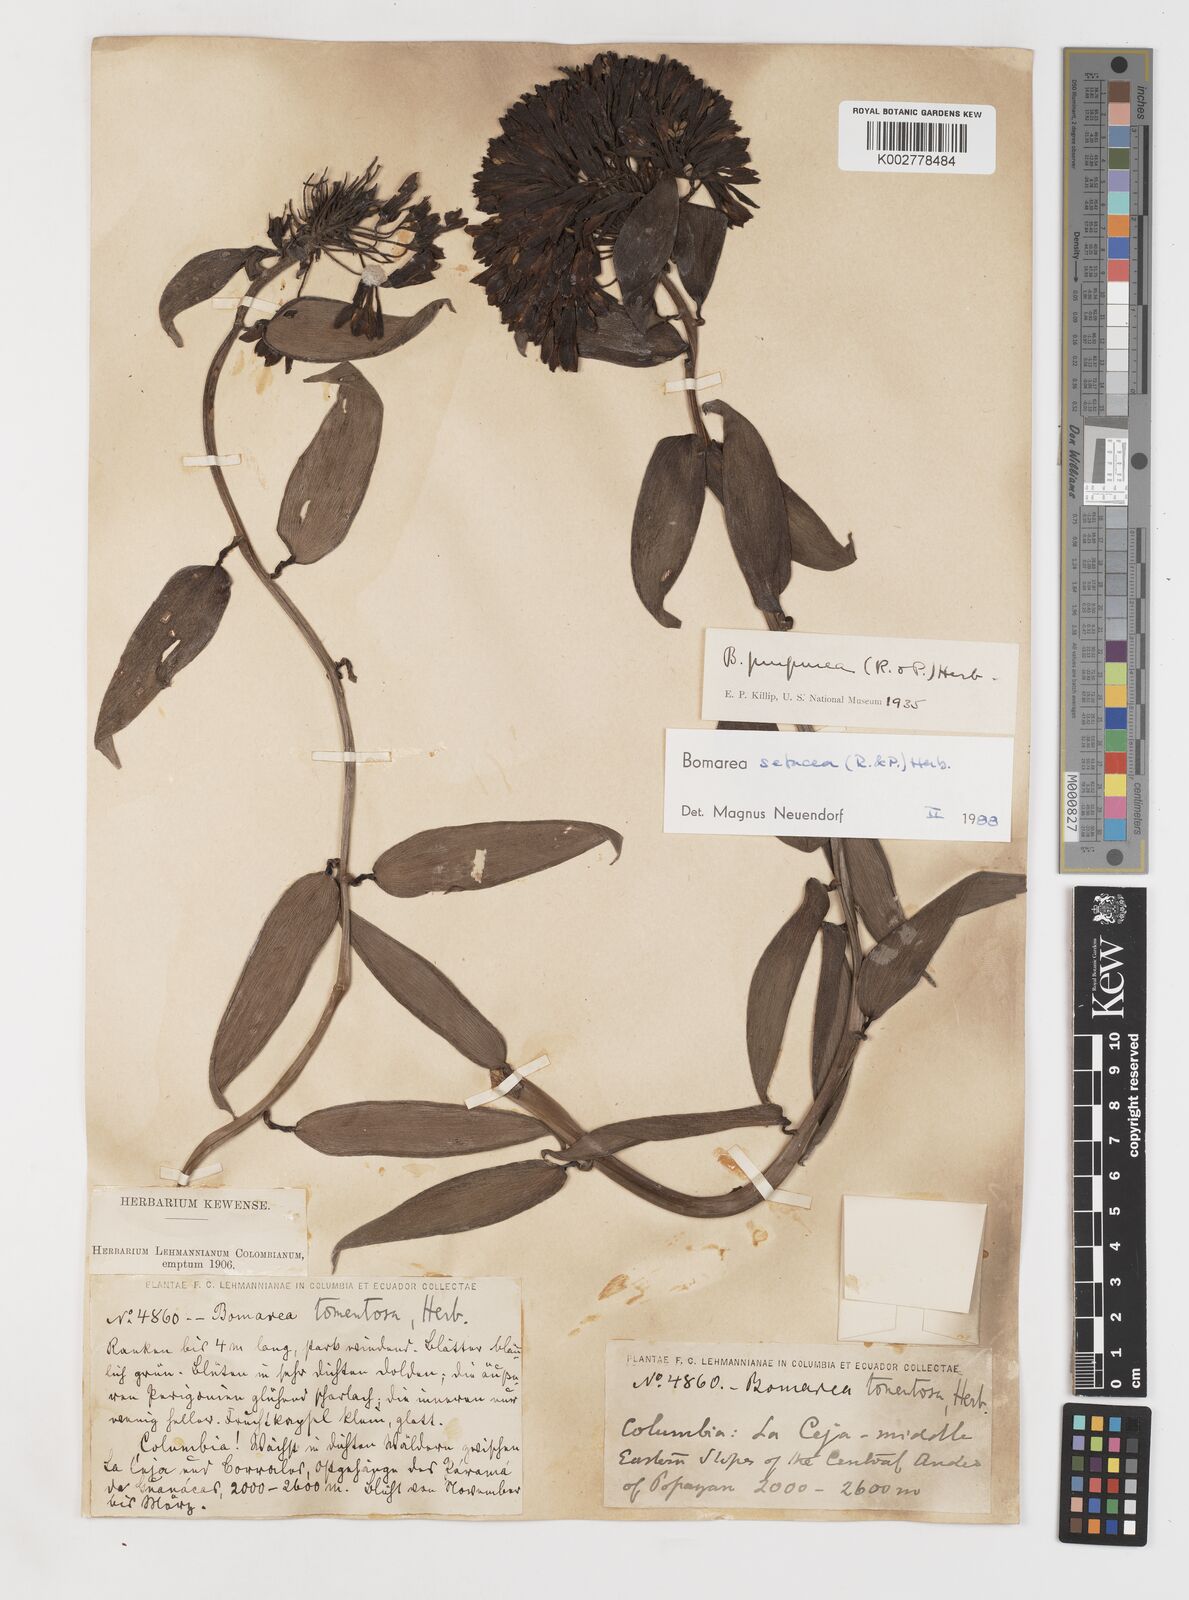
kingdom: Plantae
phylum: Tracheophyta
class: Liliopsida
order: Liliales
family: Alstroemeriaceae
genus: Bomarea
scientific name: Bomarea setacea
